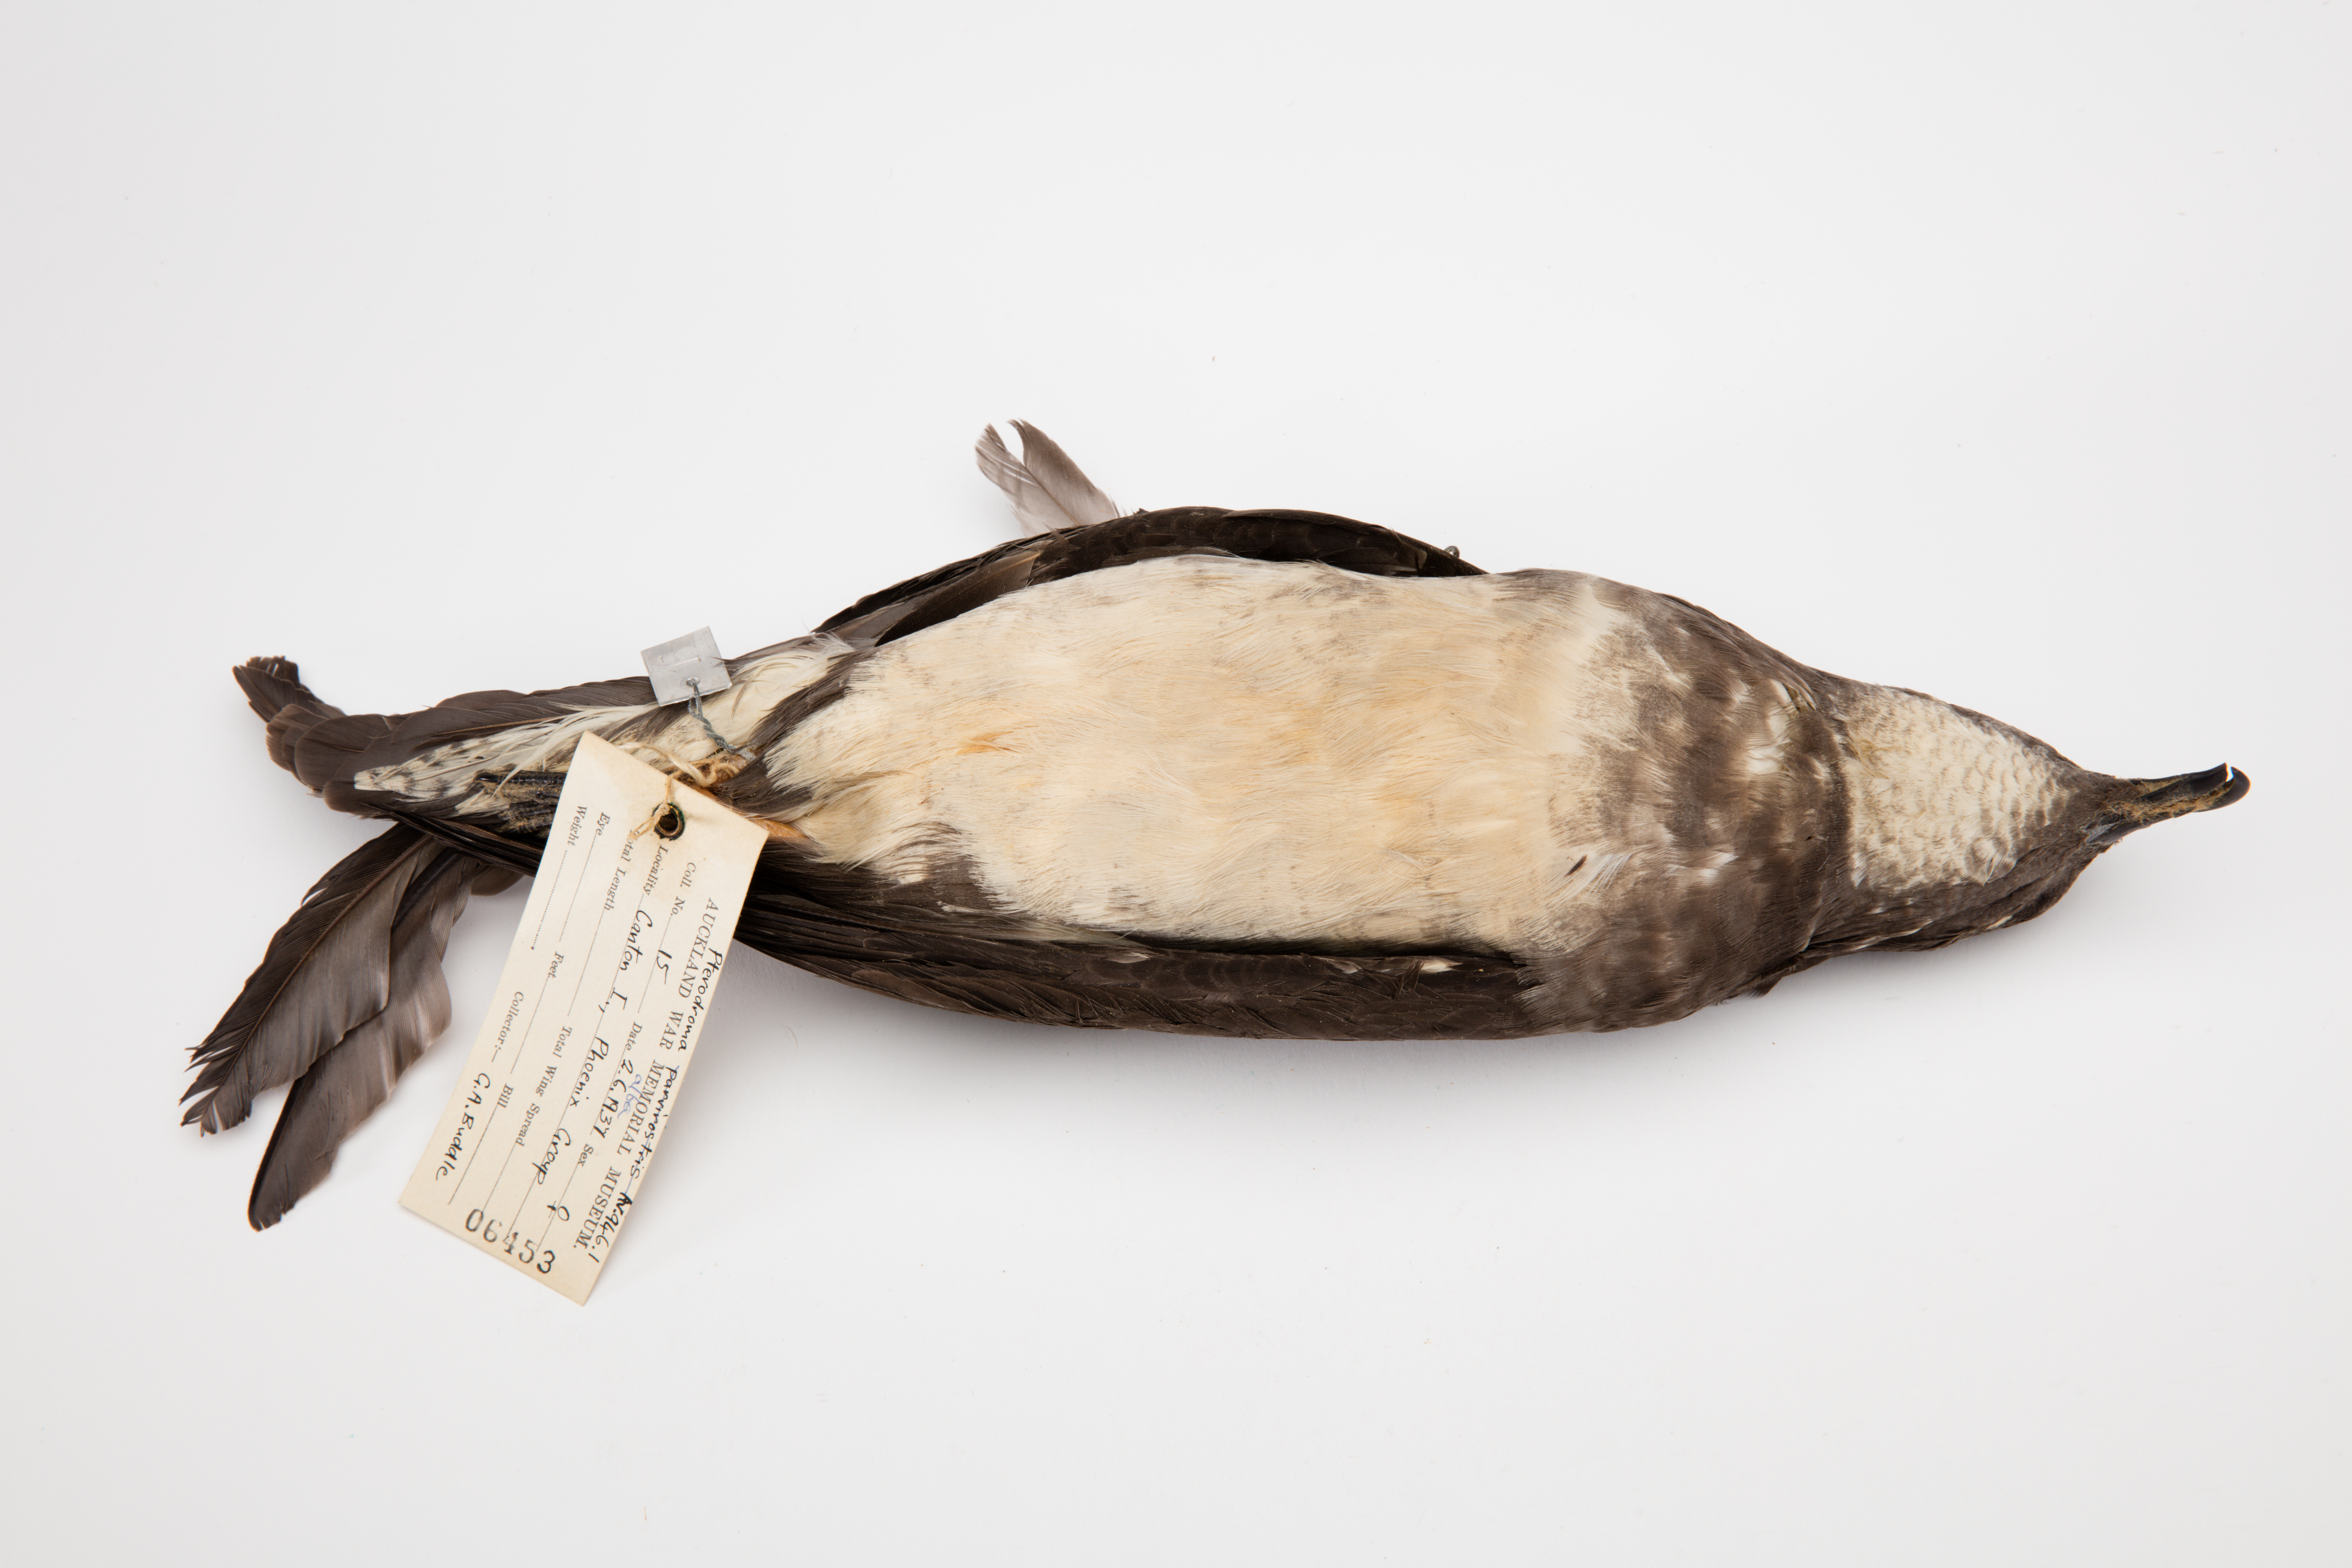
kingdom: Animalia
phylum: Chordata
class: Aves
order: Procellariiformes
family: Procellariidae
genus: Pterodroma
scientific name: Pterodroma alba
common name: Phoenix petrel
